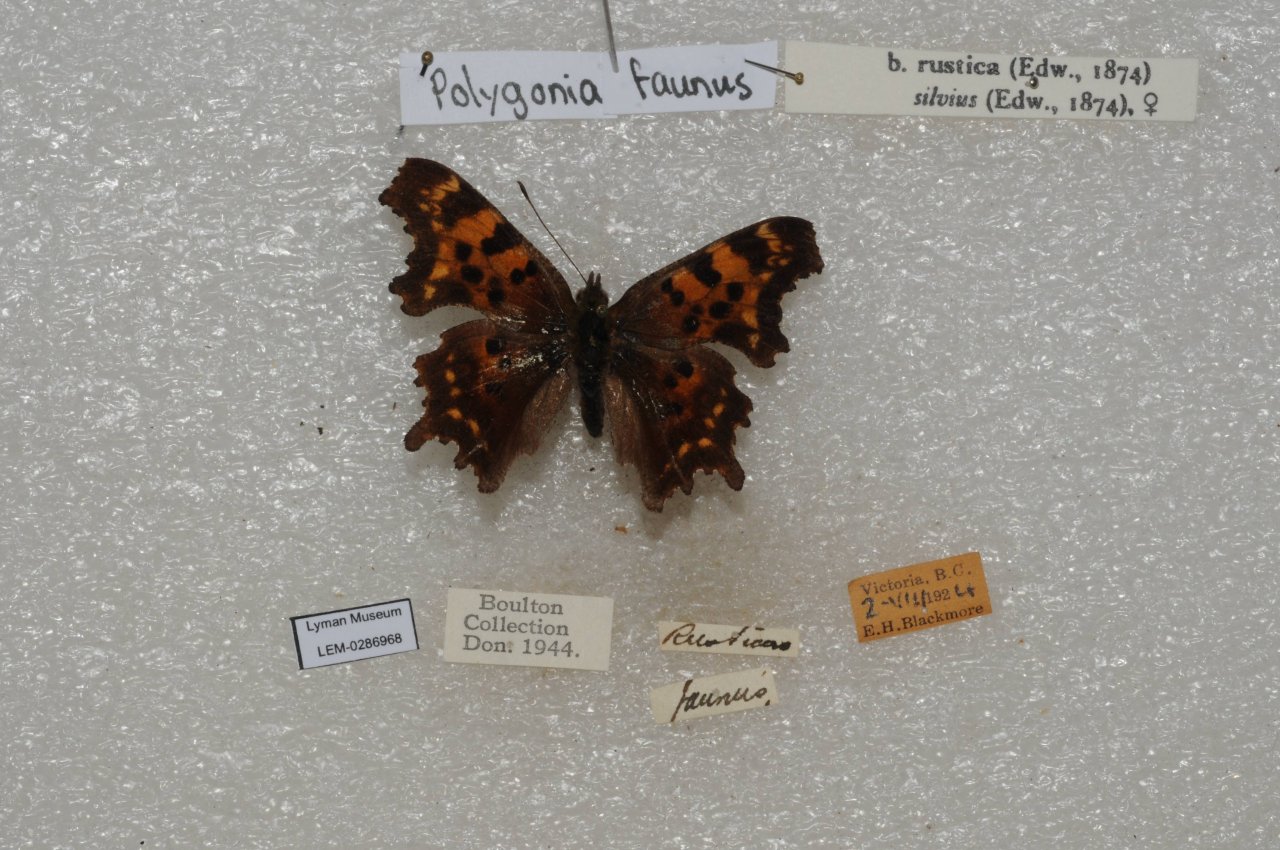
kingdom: Animalia
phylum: Arthropoda
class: Insecta
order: Lepidoptera
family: Nymphalidae
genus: Polygonia
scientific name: Polygonia faunus
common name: Green Comma
